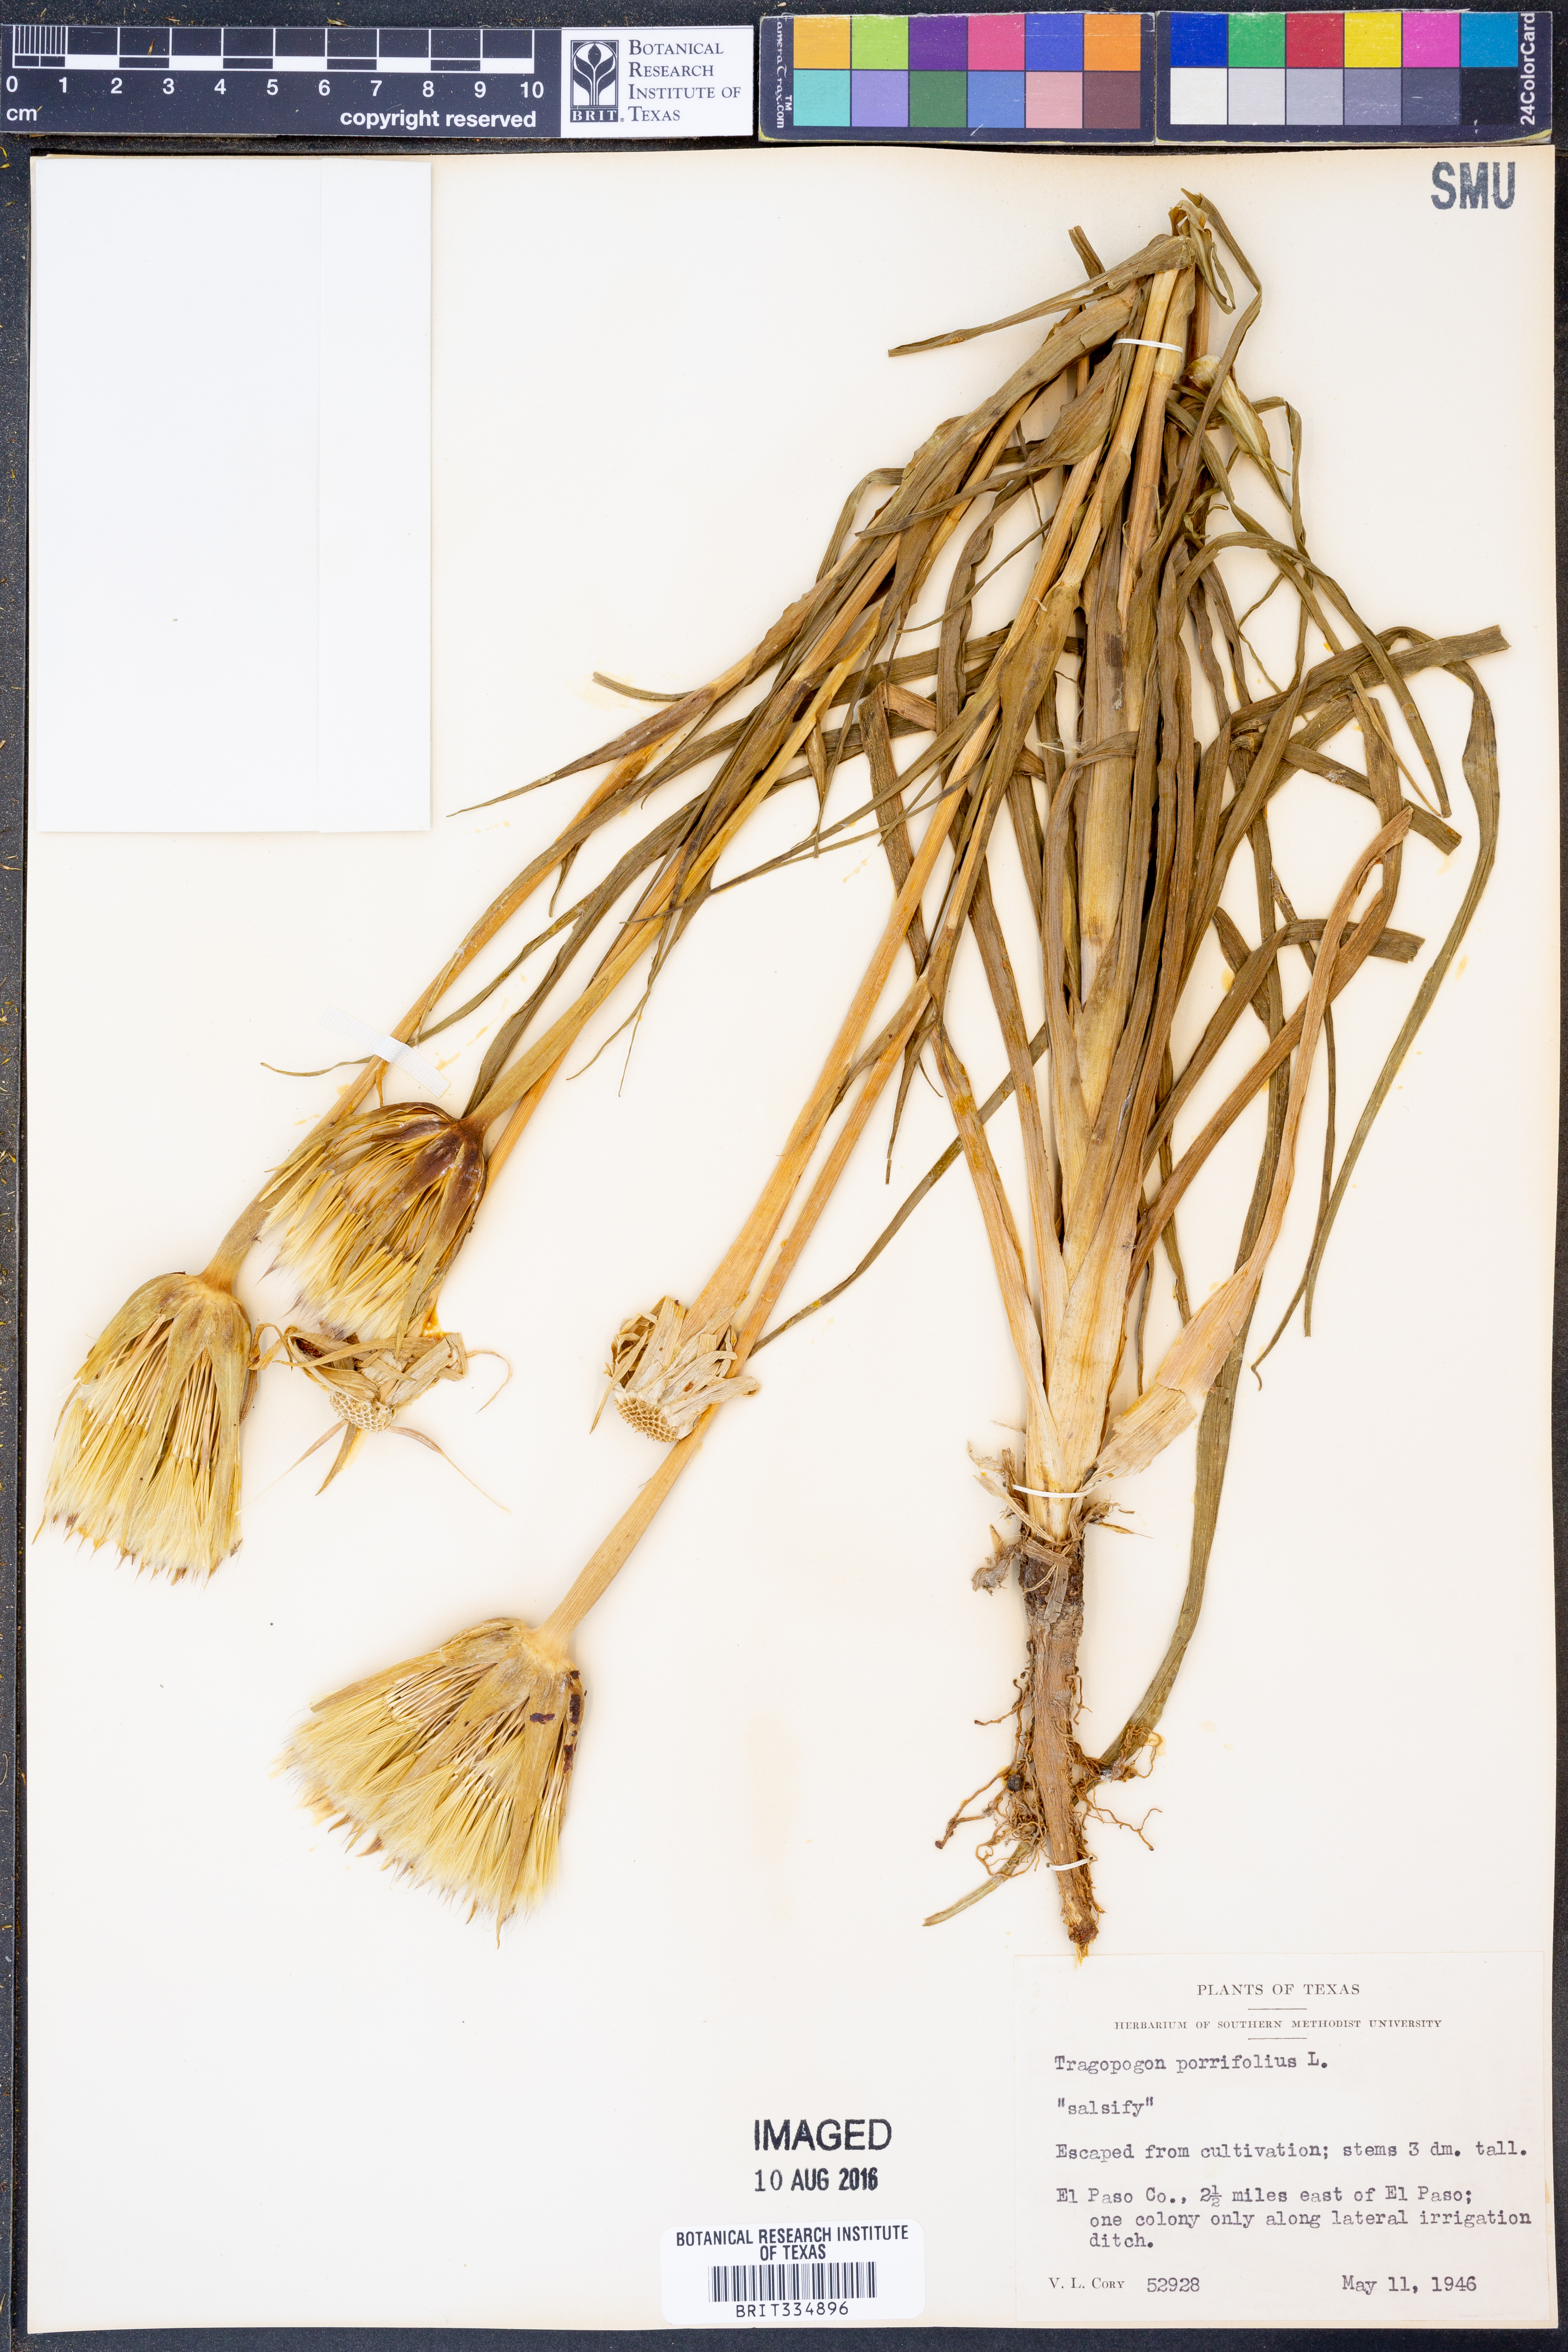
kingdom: Plantae
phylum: Tracheophyta
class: Magnoliopsida
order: Asterales
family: Asteraceae
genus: Tragopogon
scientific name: Tragopogon porrifolius
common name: Salsify
